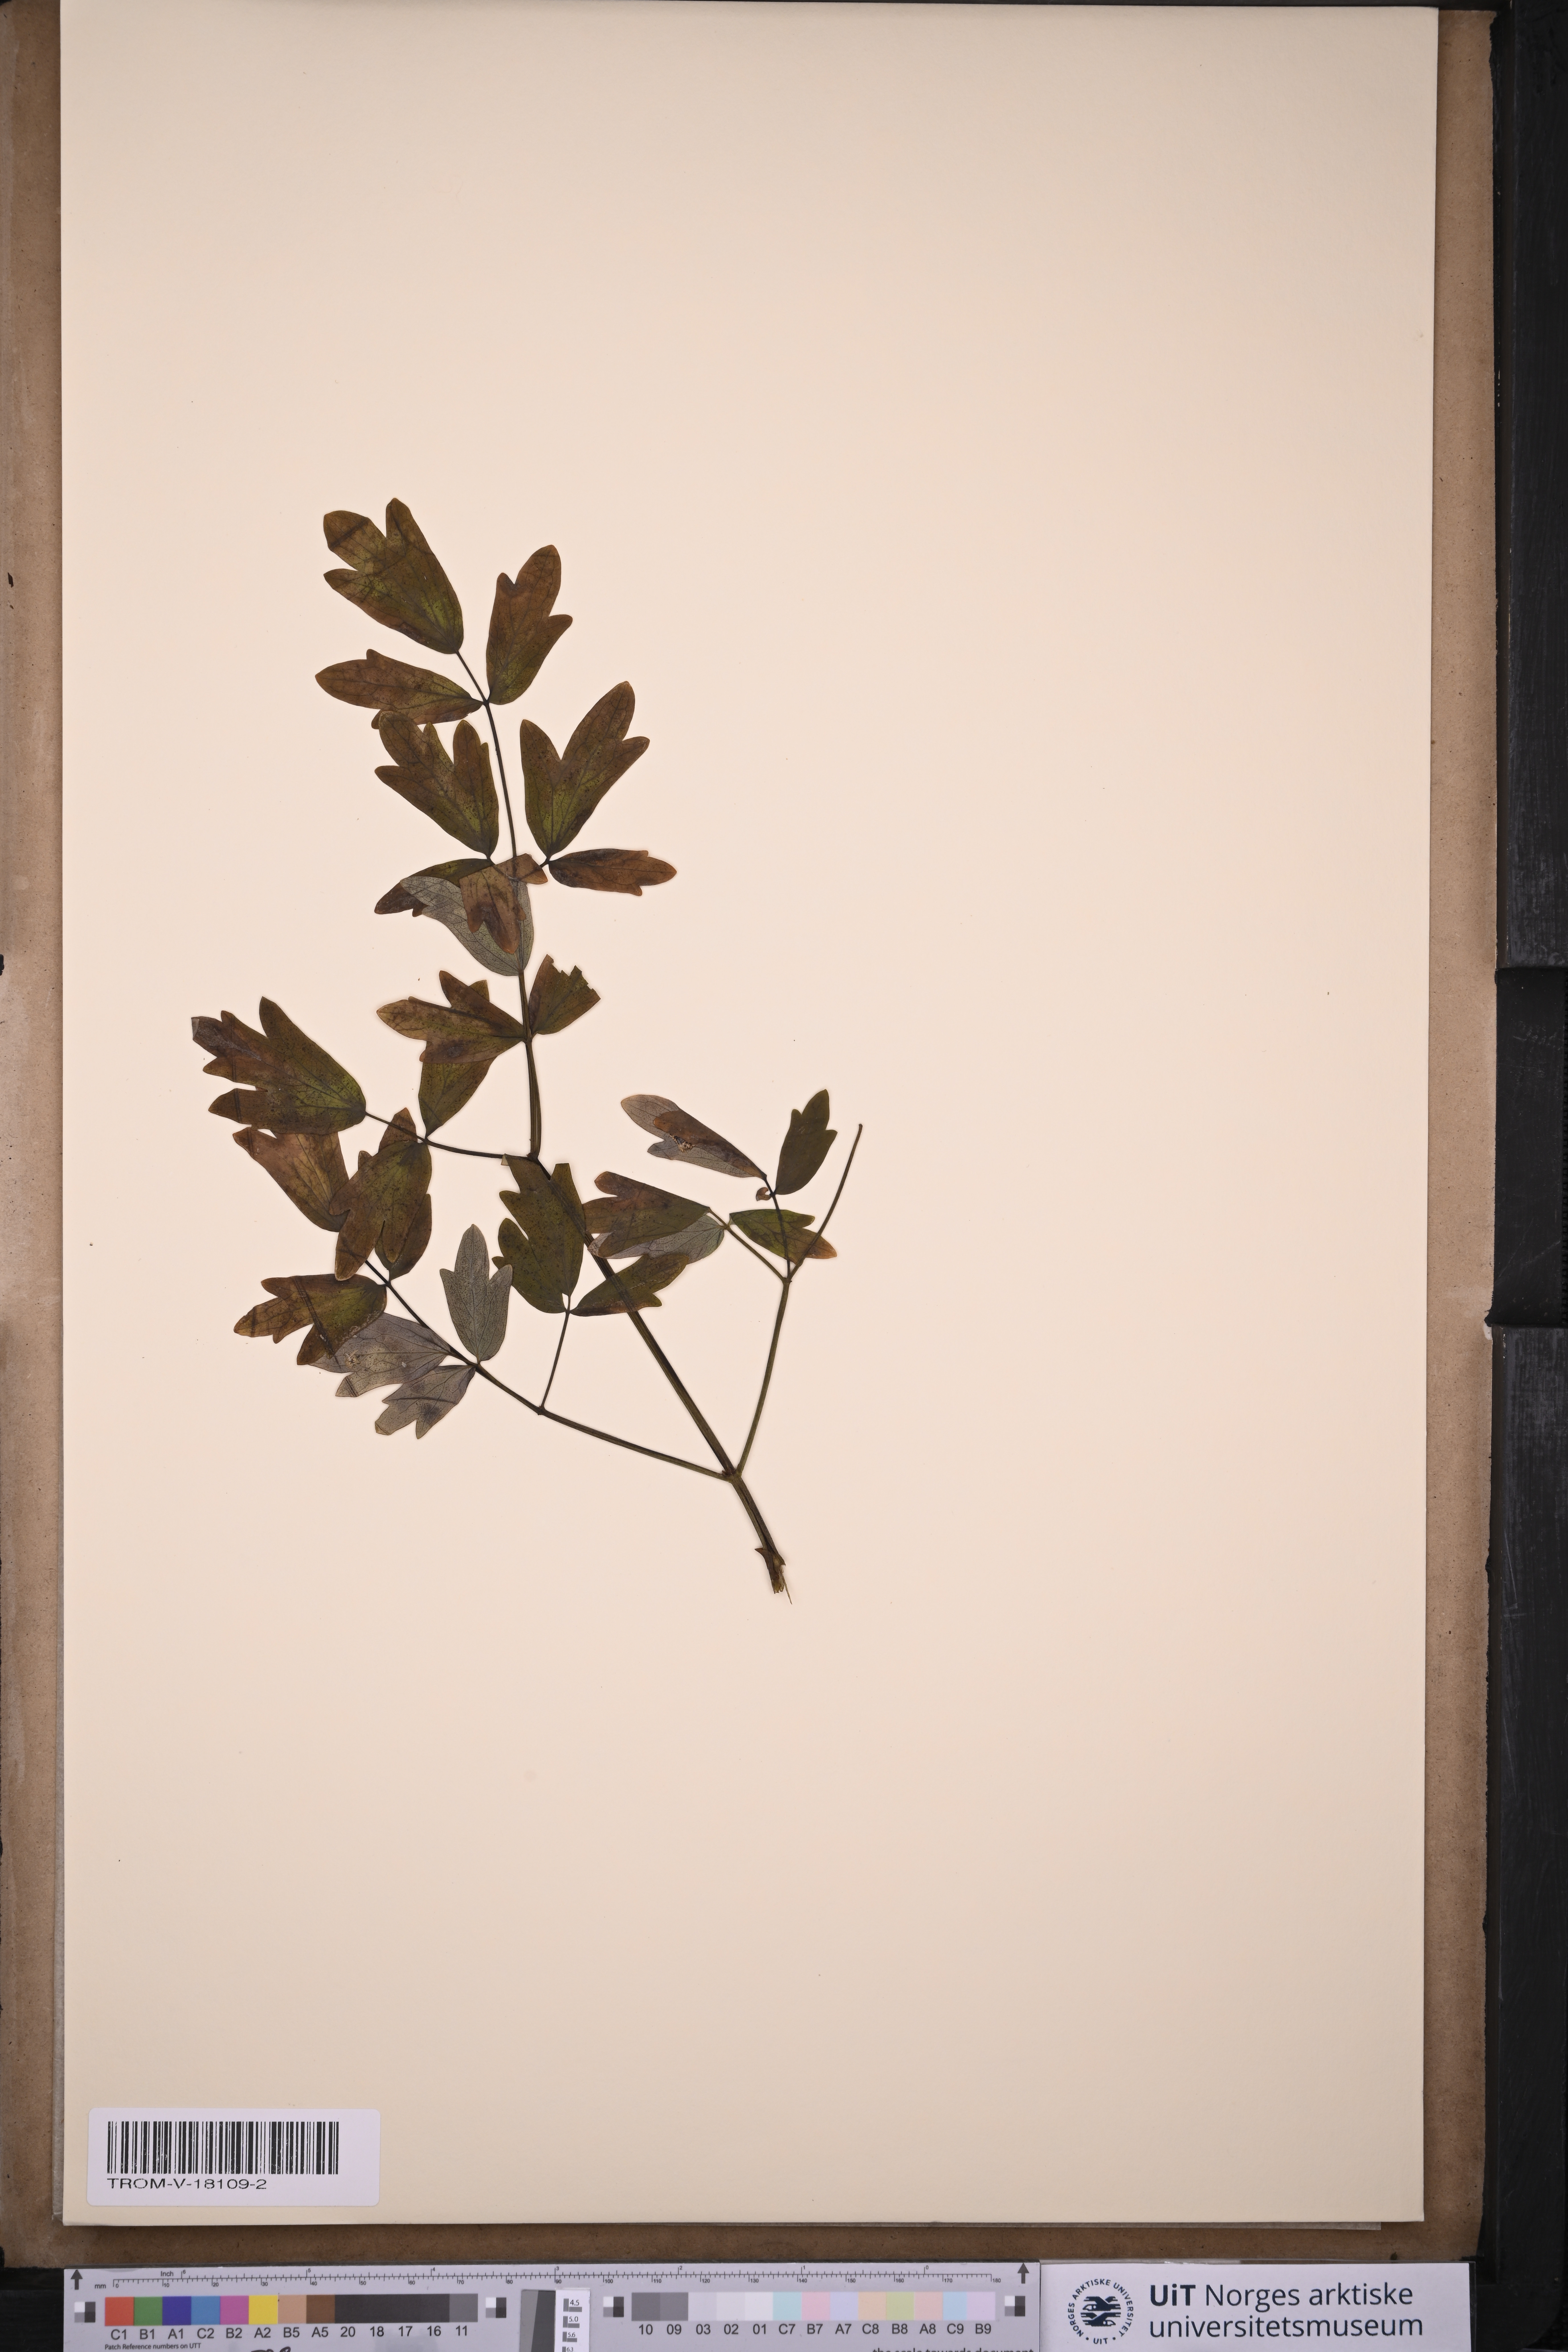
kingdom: Plantae
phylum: Tracheophyta
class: Magnoliopsida
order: Ranunculales
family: Ranunculaceae
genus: Thalictrum
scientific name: Thalictrum flavum
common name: Common meadow-rue
